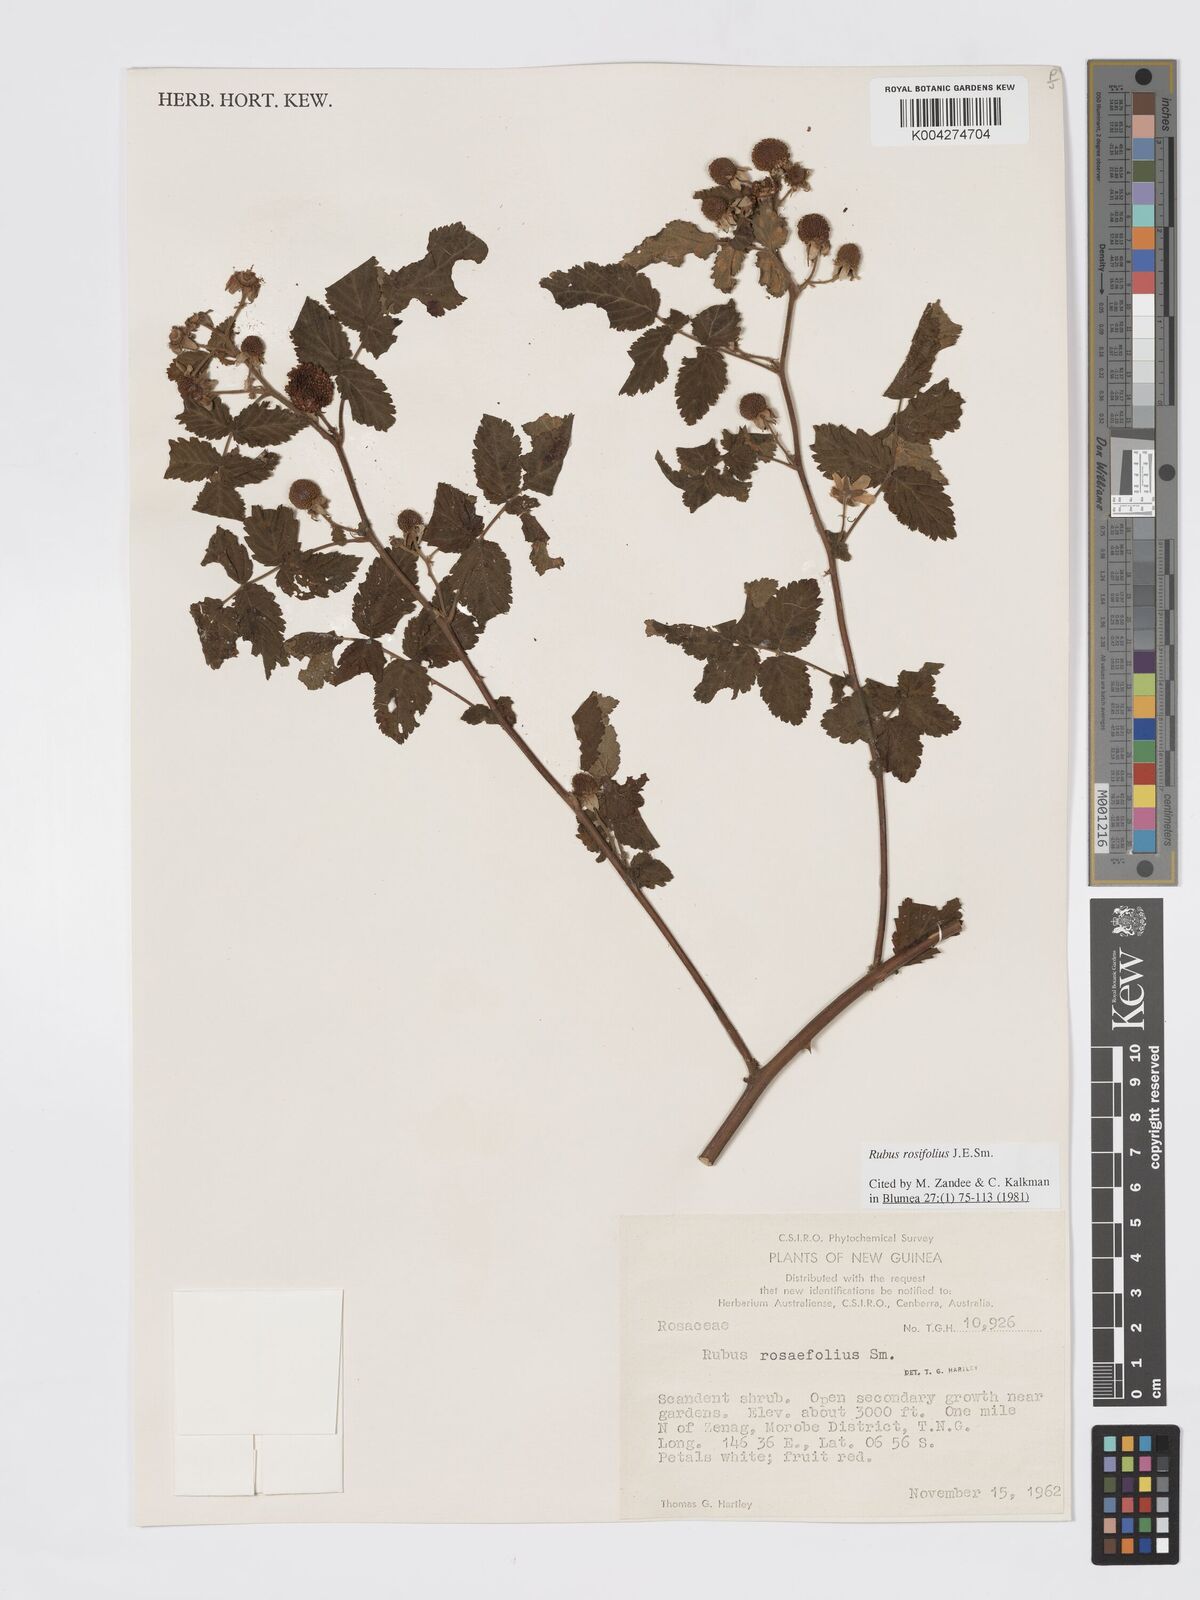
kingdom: Plantae
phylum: Tracheophyta
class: Magnoliopsida
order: Rosales
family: Rosaceae
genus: Rubus
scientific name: Rubus
